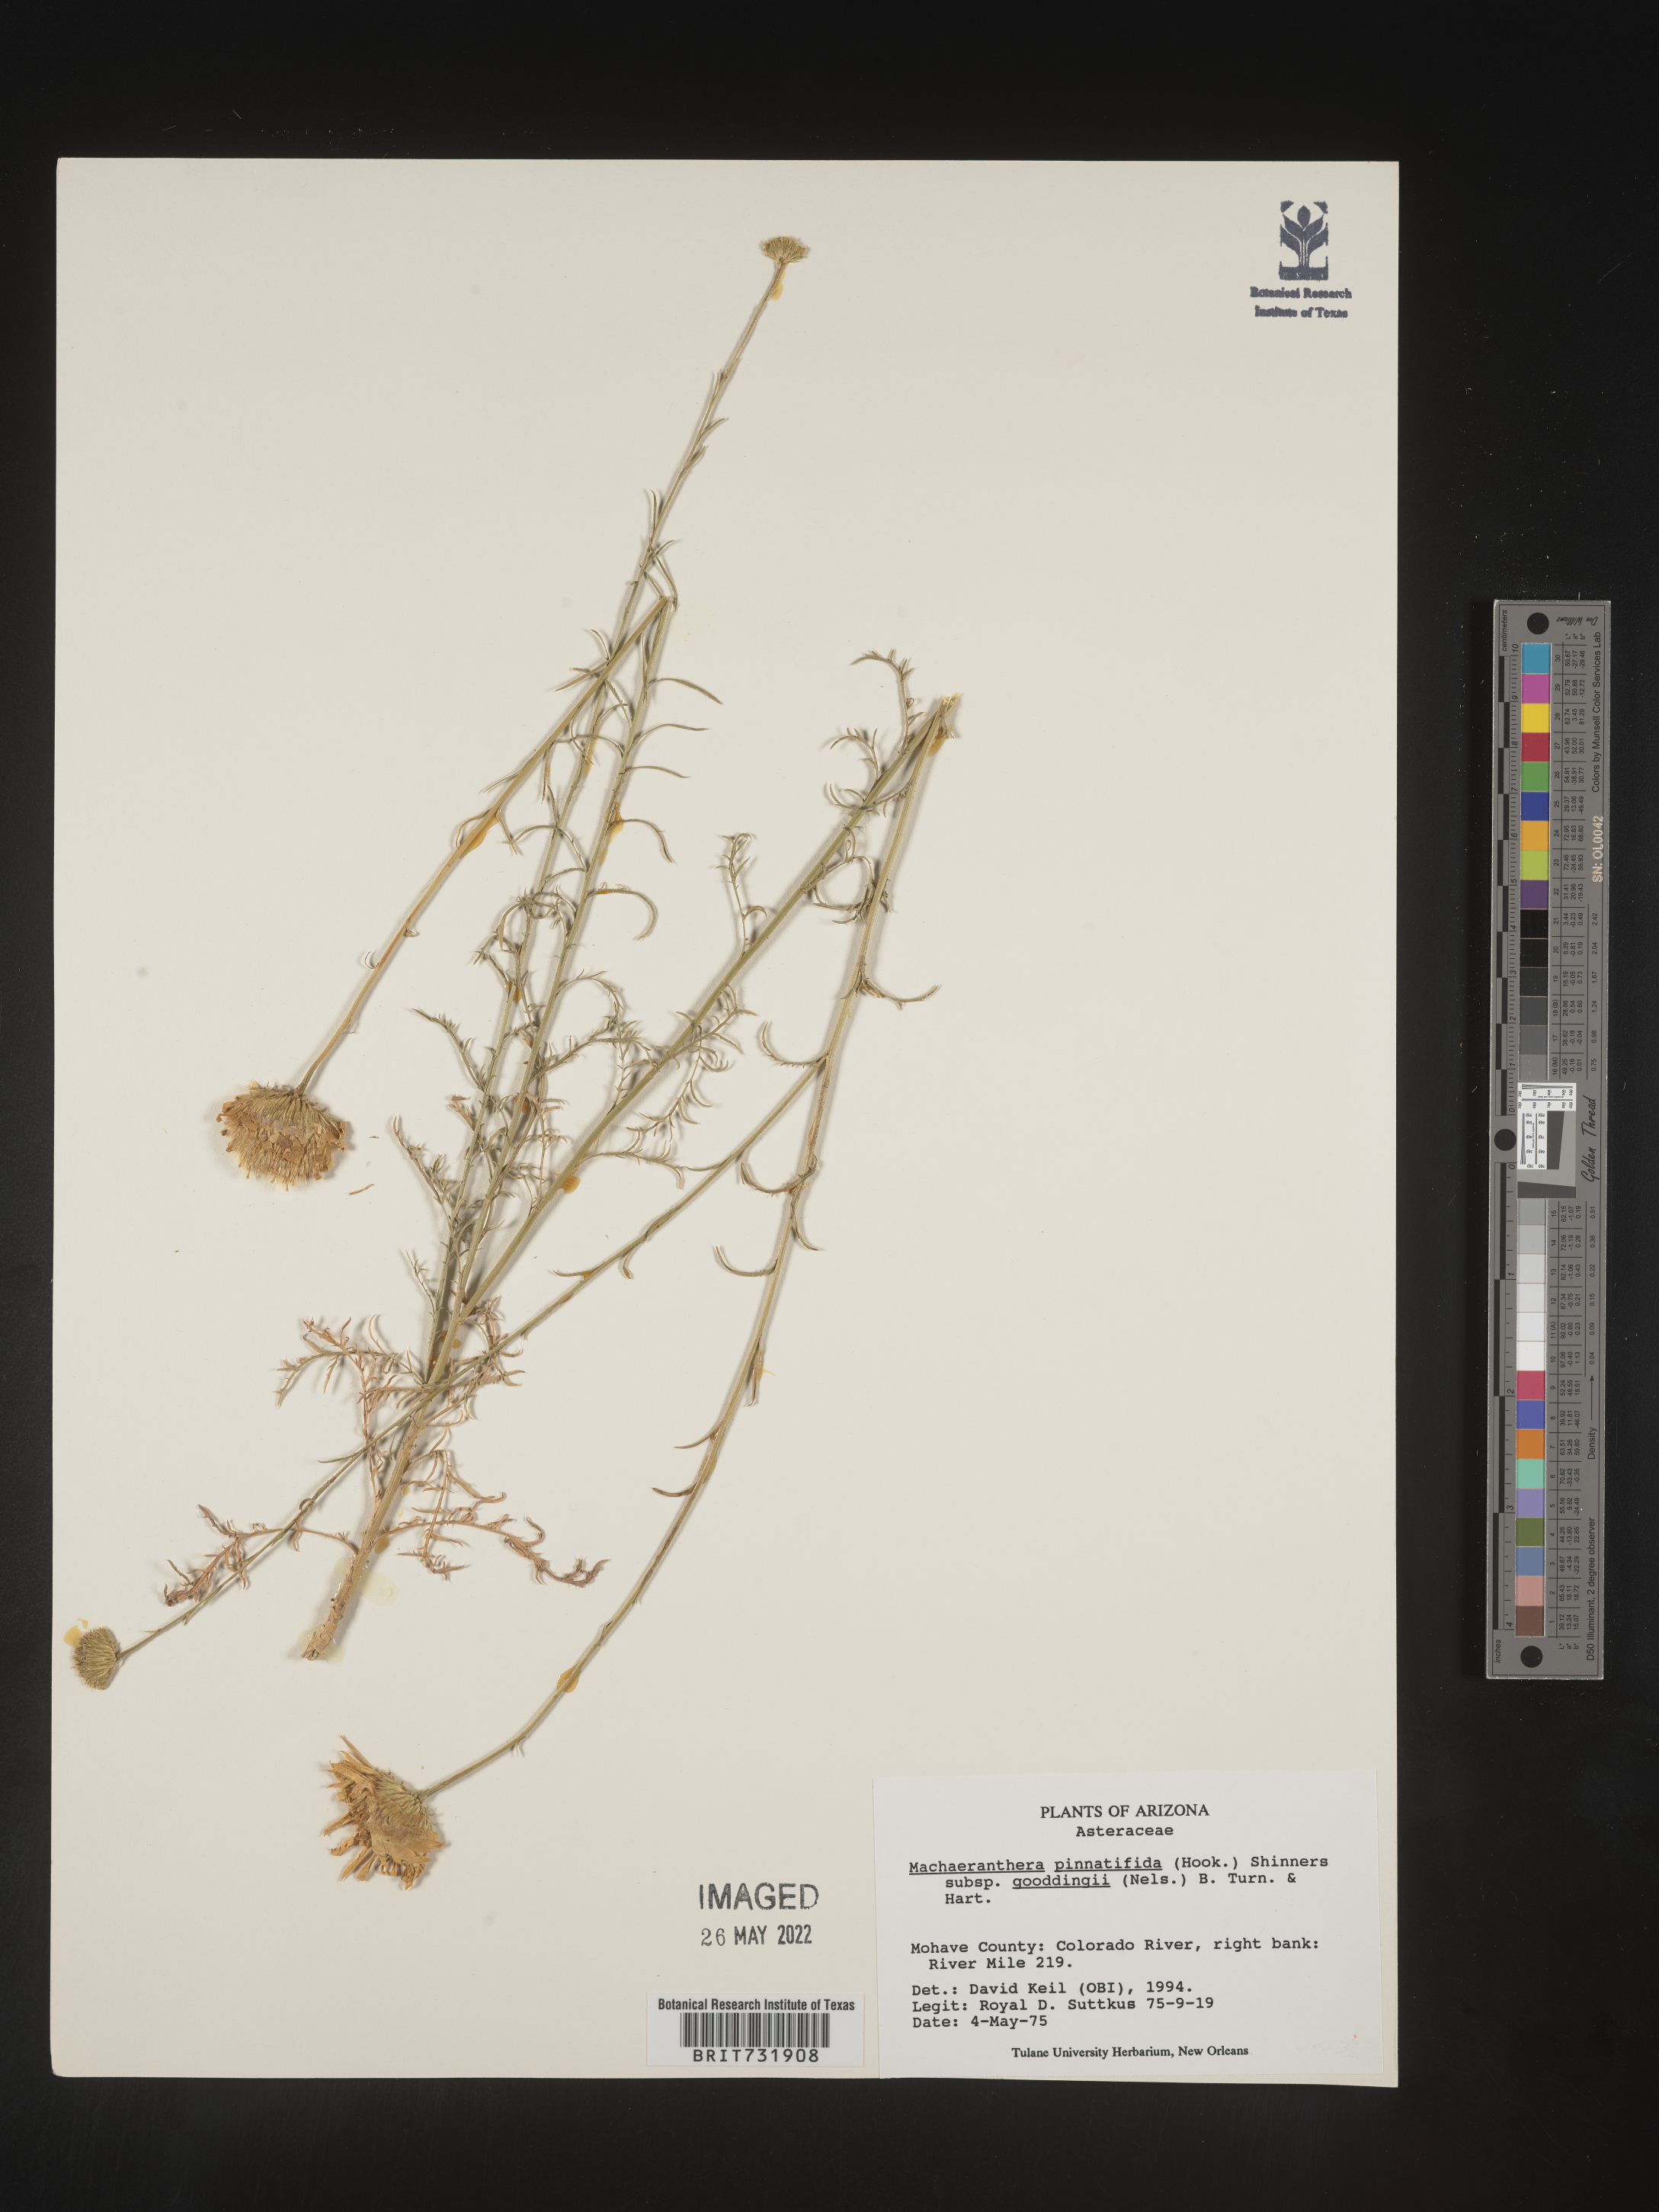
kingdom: Plantae
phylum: Tracheophyta
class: Magnoliopsida
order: Asterales
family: Asteraceae
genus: Xanthisma
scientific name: Xanthisma spinulosum
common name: Spiny goldenweed
